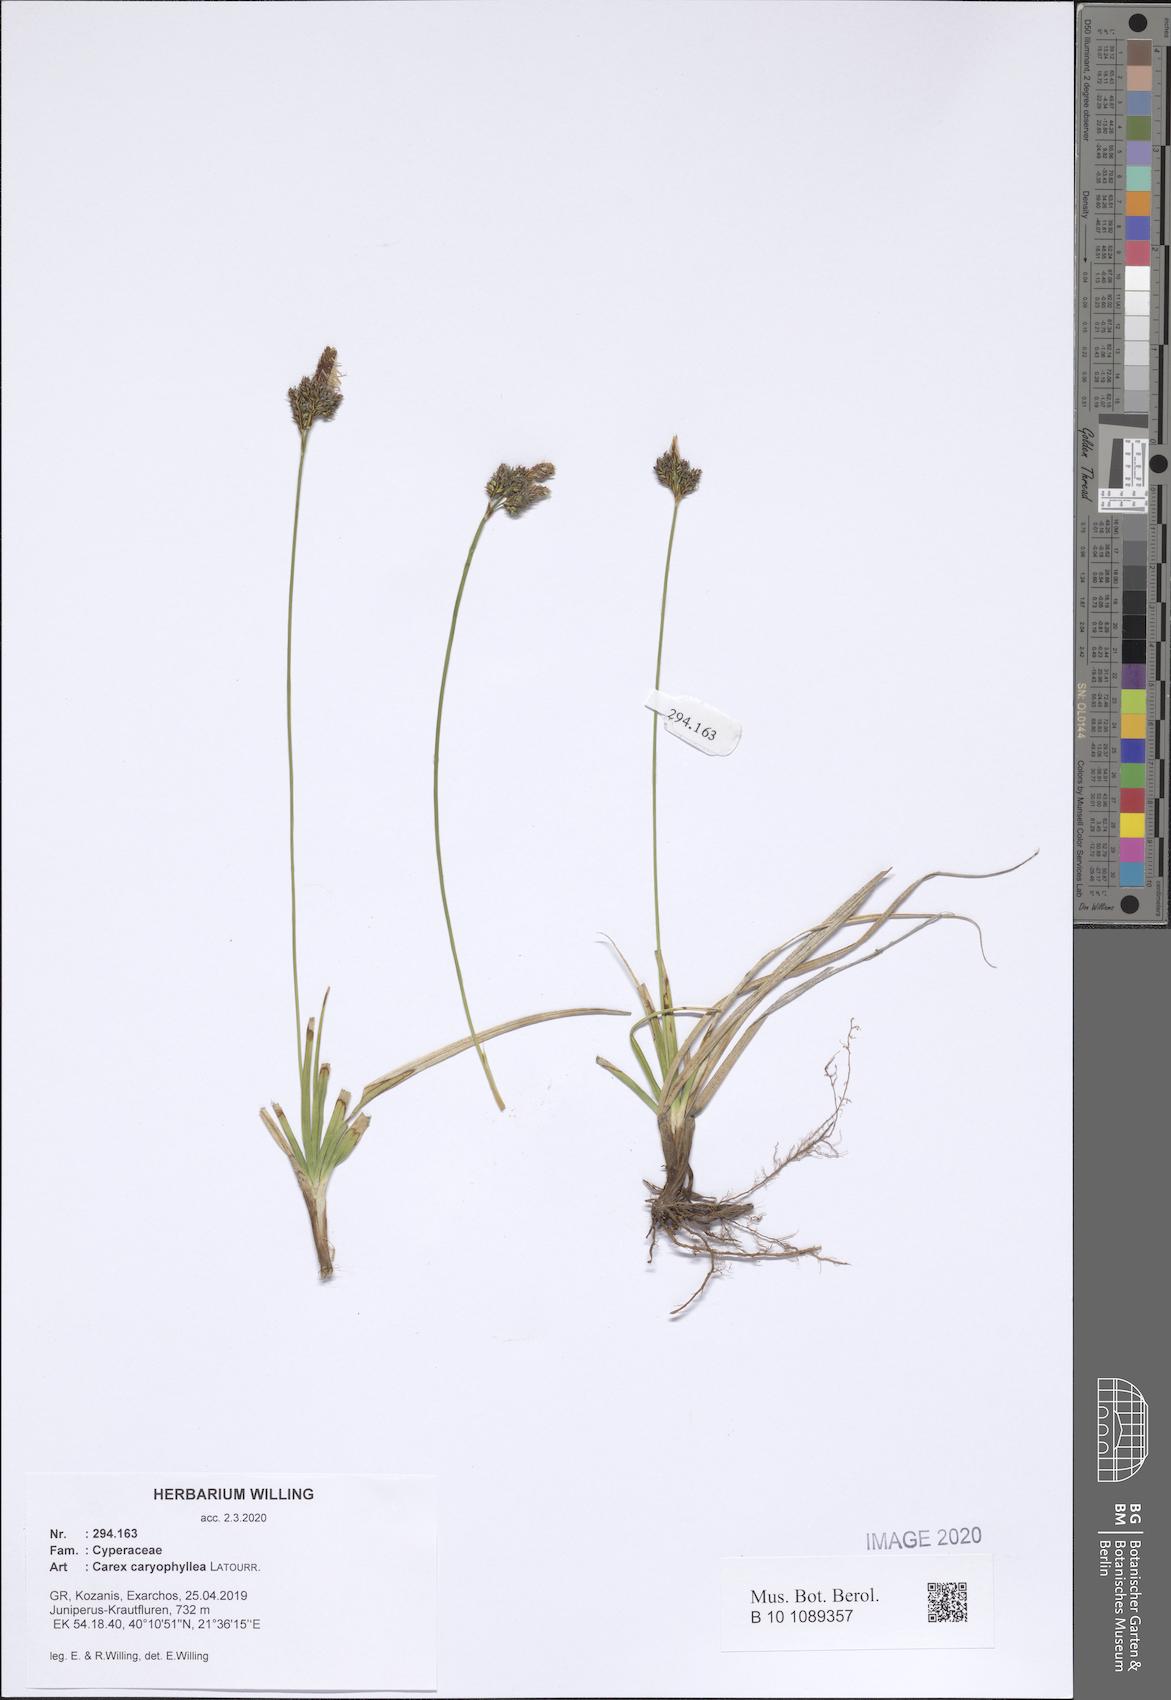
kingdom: Plantae
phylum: Tracheophyta
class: Liliopsida
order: Poales
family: Cyperaceae
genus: Carex
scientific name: Carex caryophyllea
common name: Spring sedge
